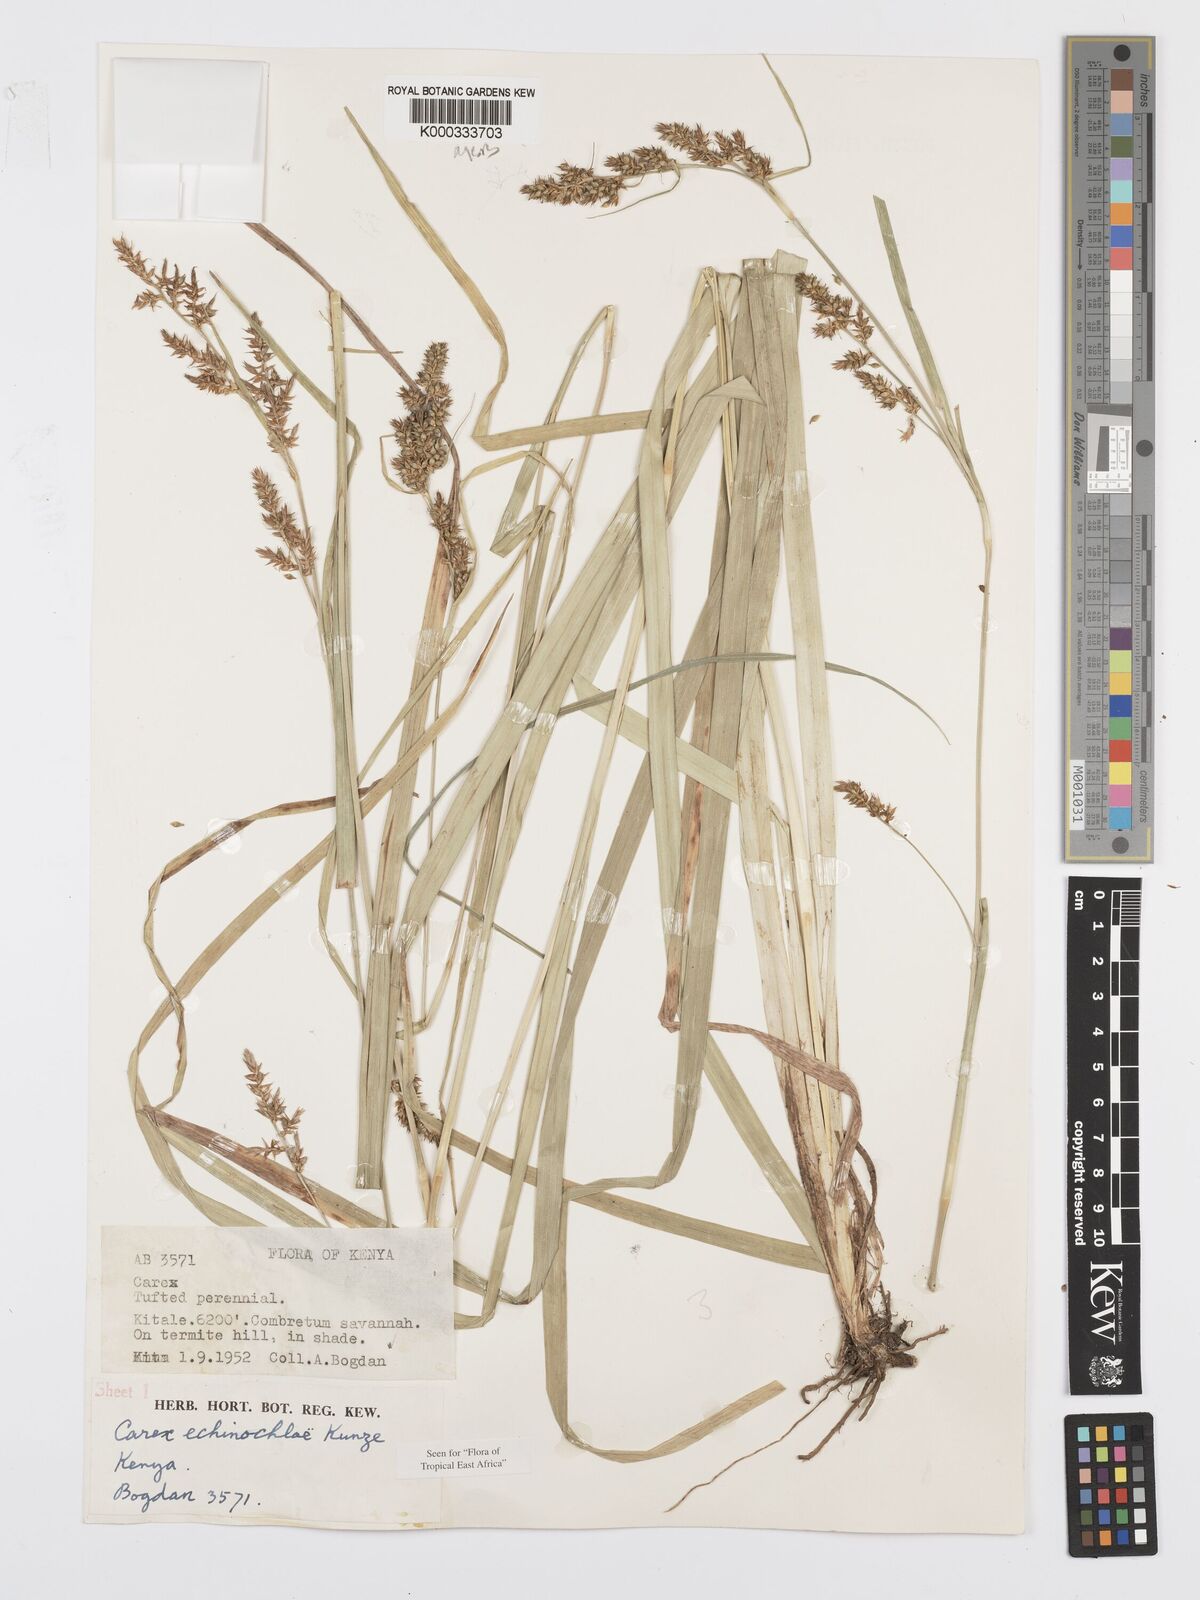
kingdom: Plantae
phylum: Tracheophyta
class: Liliopsida
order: Poales
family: Cyperaceae
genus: Carex
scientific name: Carex echinochloe
